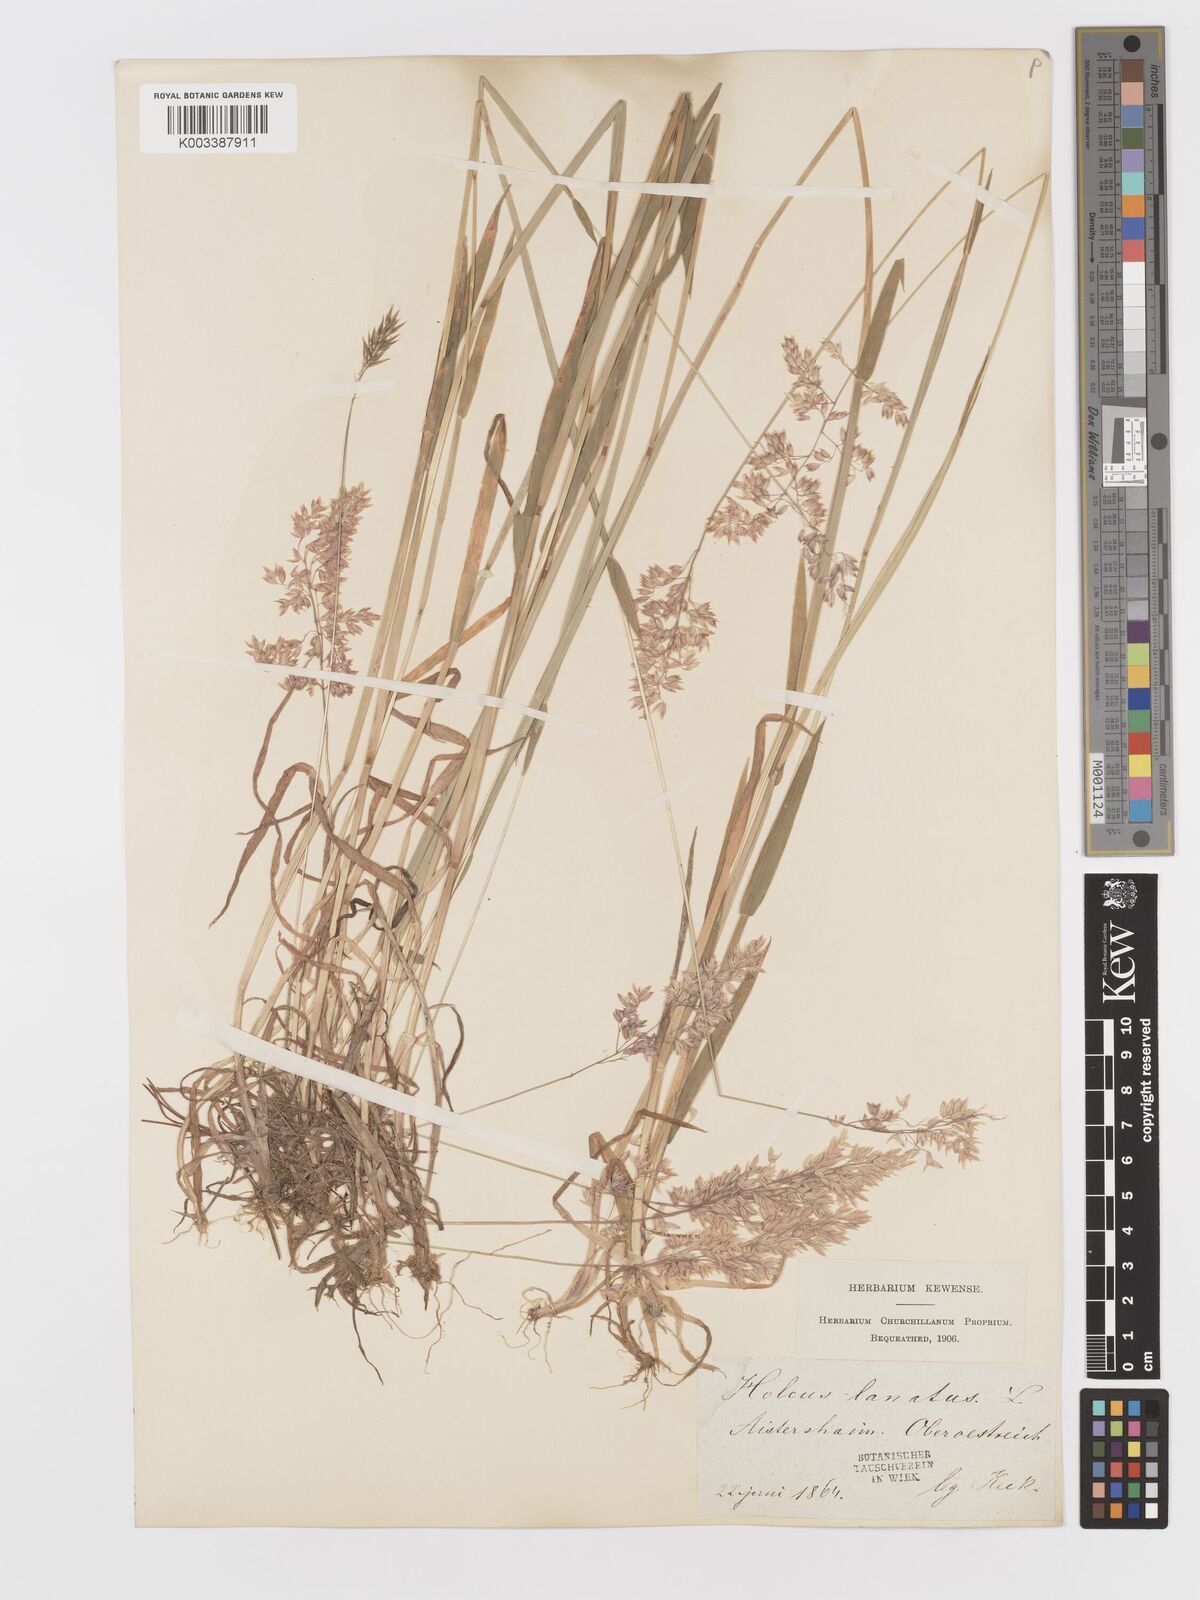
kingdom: Plantae
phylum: Tracheophyta
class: Liliopsida
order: Poales
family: Poaceae
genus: Holcus
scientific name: Holcus lanatus
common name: Yorkshire-fog
